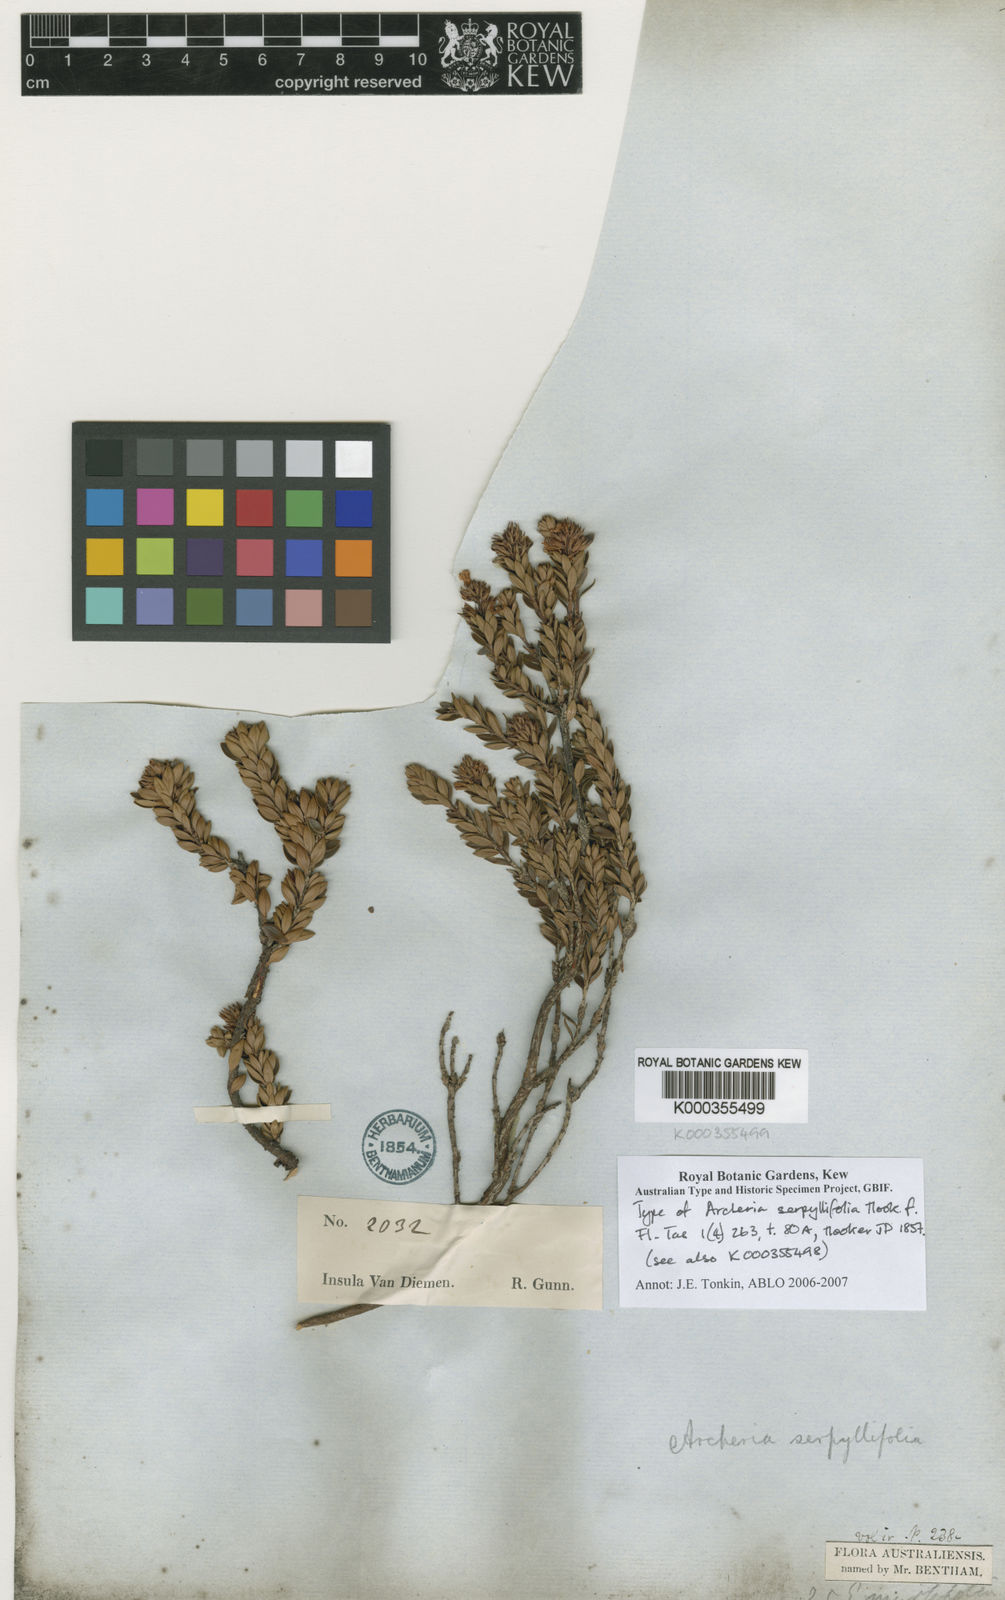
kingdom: Plantae
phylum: Tracheophyta
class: Magnoliopsida
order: Ericales
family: Ericaceae
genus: Archeria
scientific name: Archeria serpyllifolia
